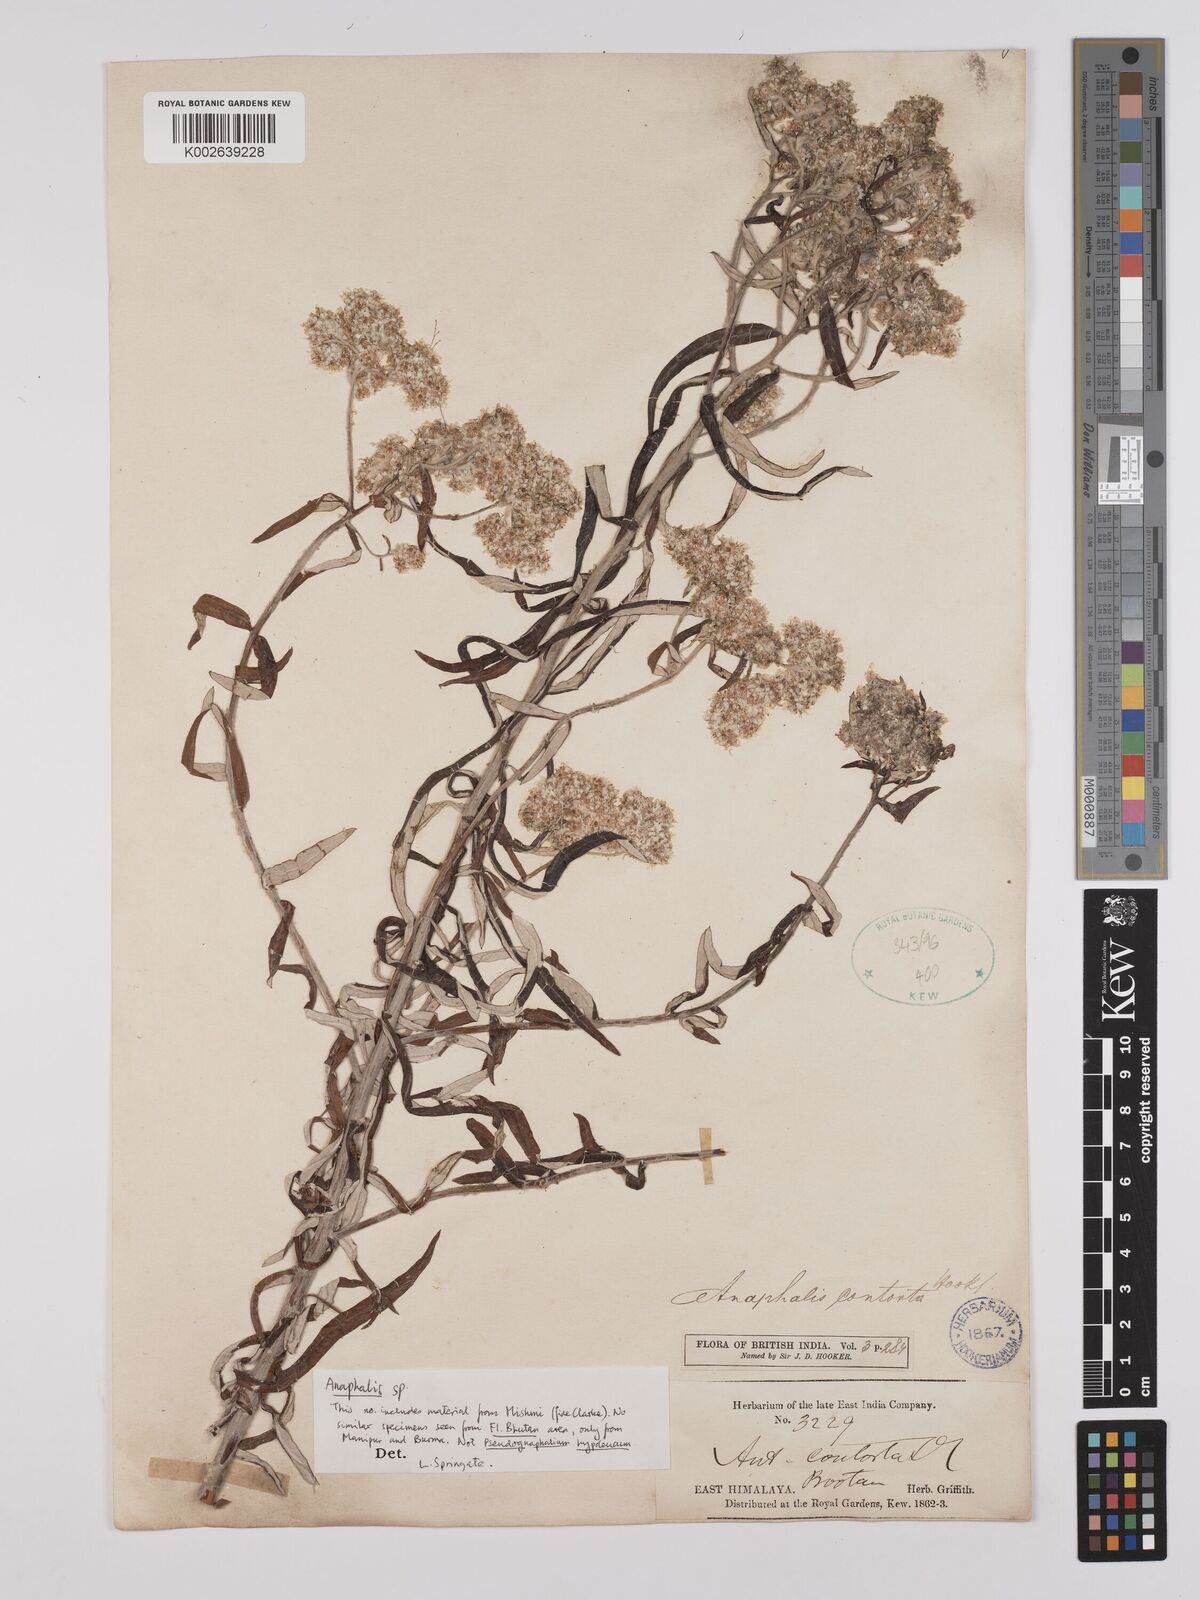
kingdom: Plantae
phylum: Tracheophyta
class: Magnoliopsida
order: Asterales
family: Asteraceae
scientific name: Asteraceae
